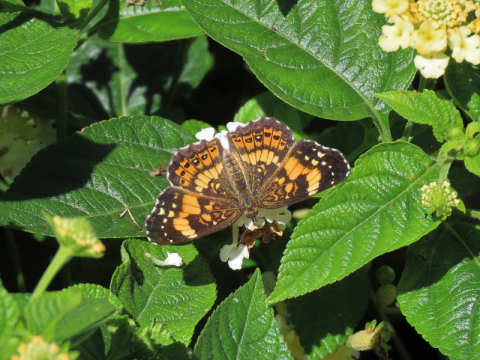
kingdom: Animalia
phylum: Arthropoda
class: Insecta
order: Lepidoptera
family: Nymphalidae
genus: Chlosyne
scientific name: Chlosyne nycteis
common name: Silvery Checkerspot
